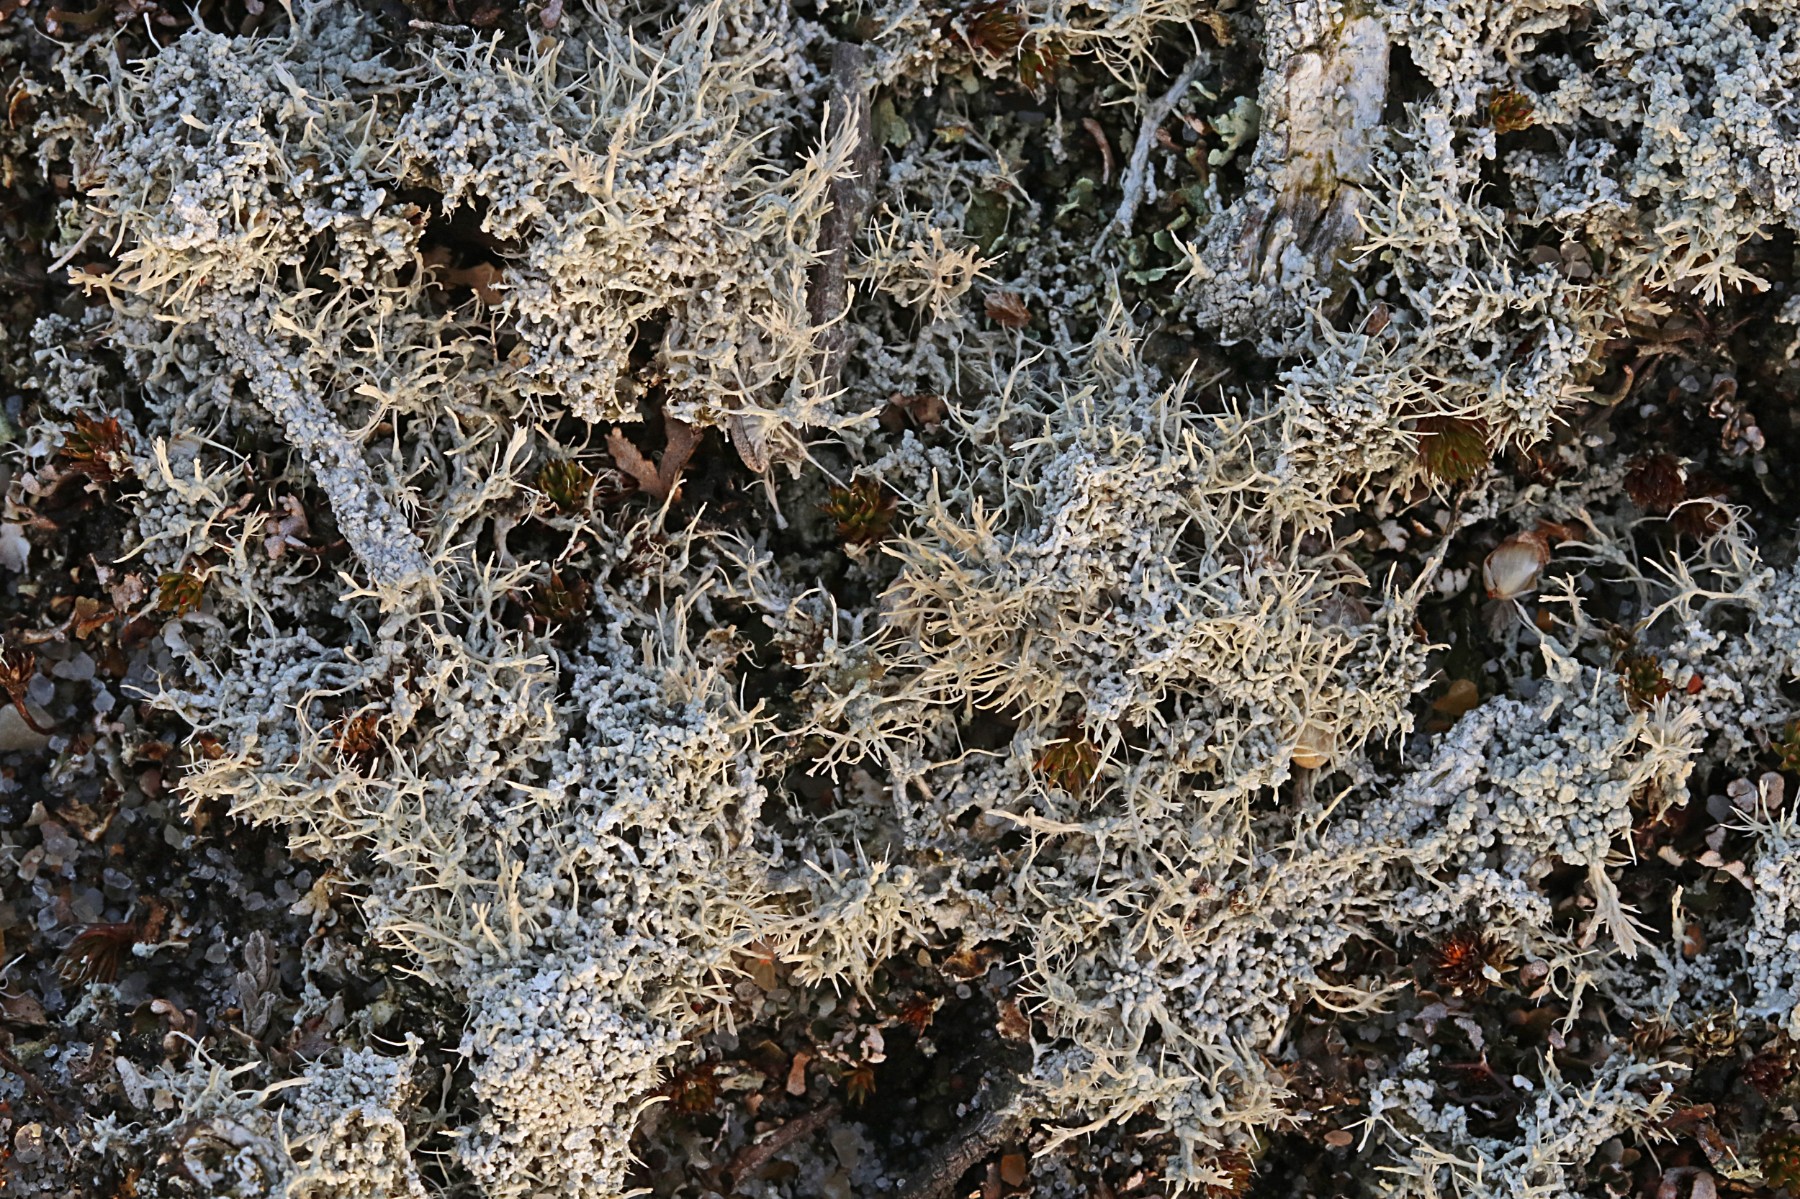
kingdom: Fungi
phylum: Ascomycota
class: Lecanoromycetes
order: Pertusariales
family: Ochrolechiaceae
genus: Ochrolechia
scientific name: Ochrolechia frigida
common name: fjeld-blegskivelav
